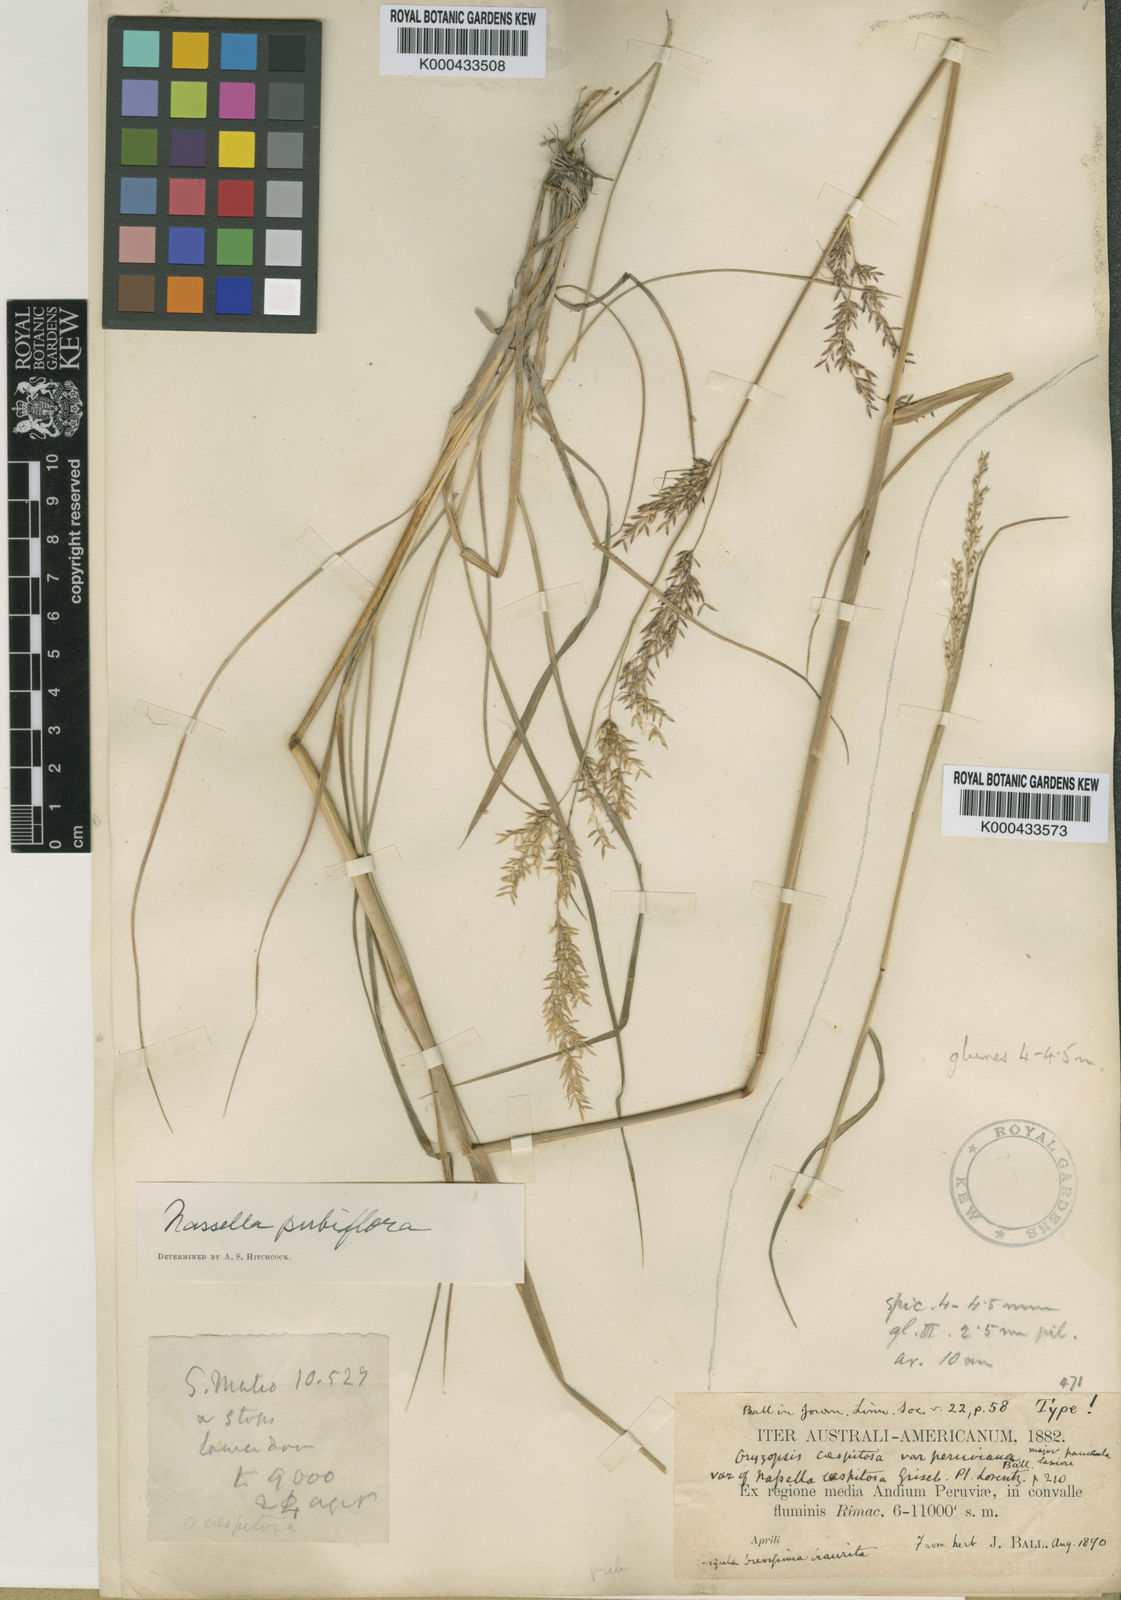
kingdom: Plantae
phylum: Tracheophyta
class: Liliopsida
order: Poales
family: Poaceae
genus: Nassella
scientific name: Nassella pubiflora
